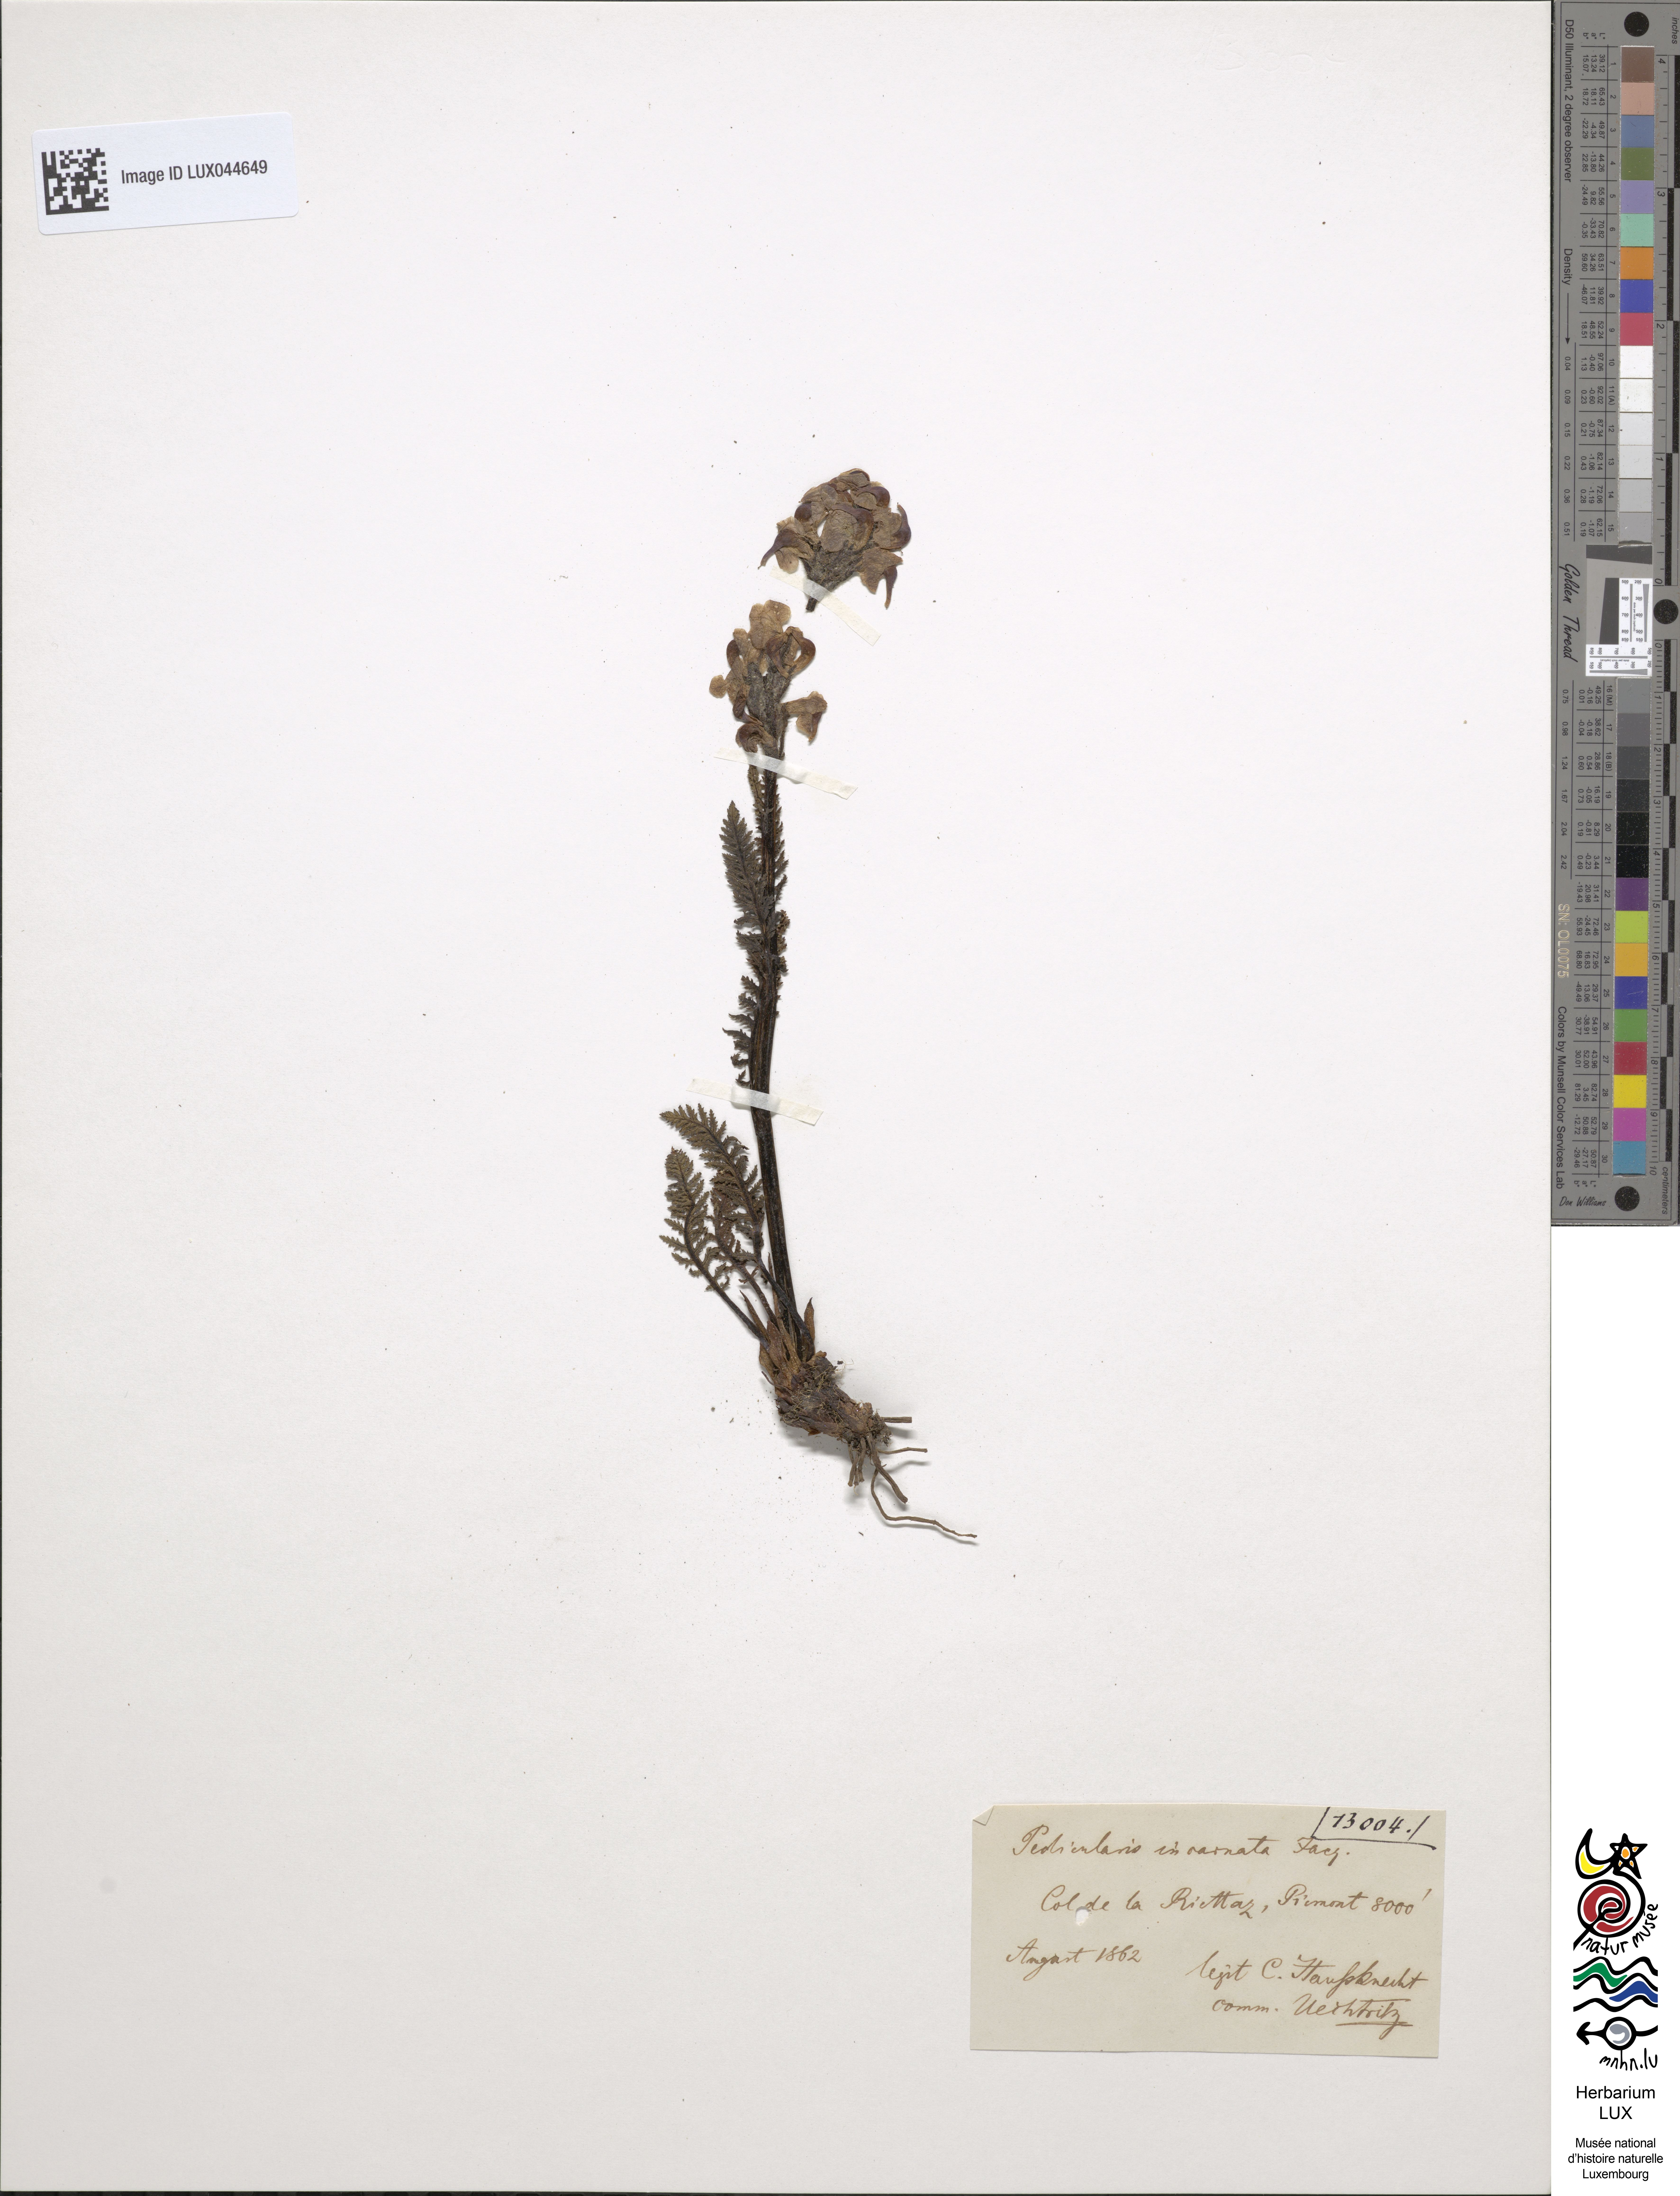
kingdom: Plantae
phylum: Tracheophyta
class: Magnoliopsida
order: Lamiales
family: Orobanchaceae
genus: Pedicularis
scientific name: Pedicularis rostratospicata
